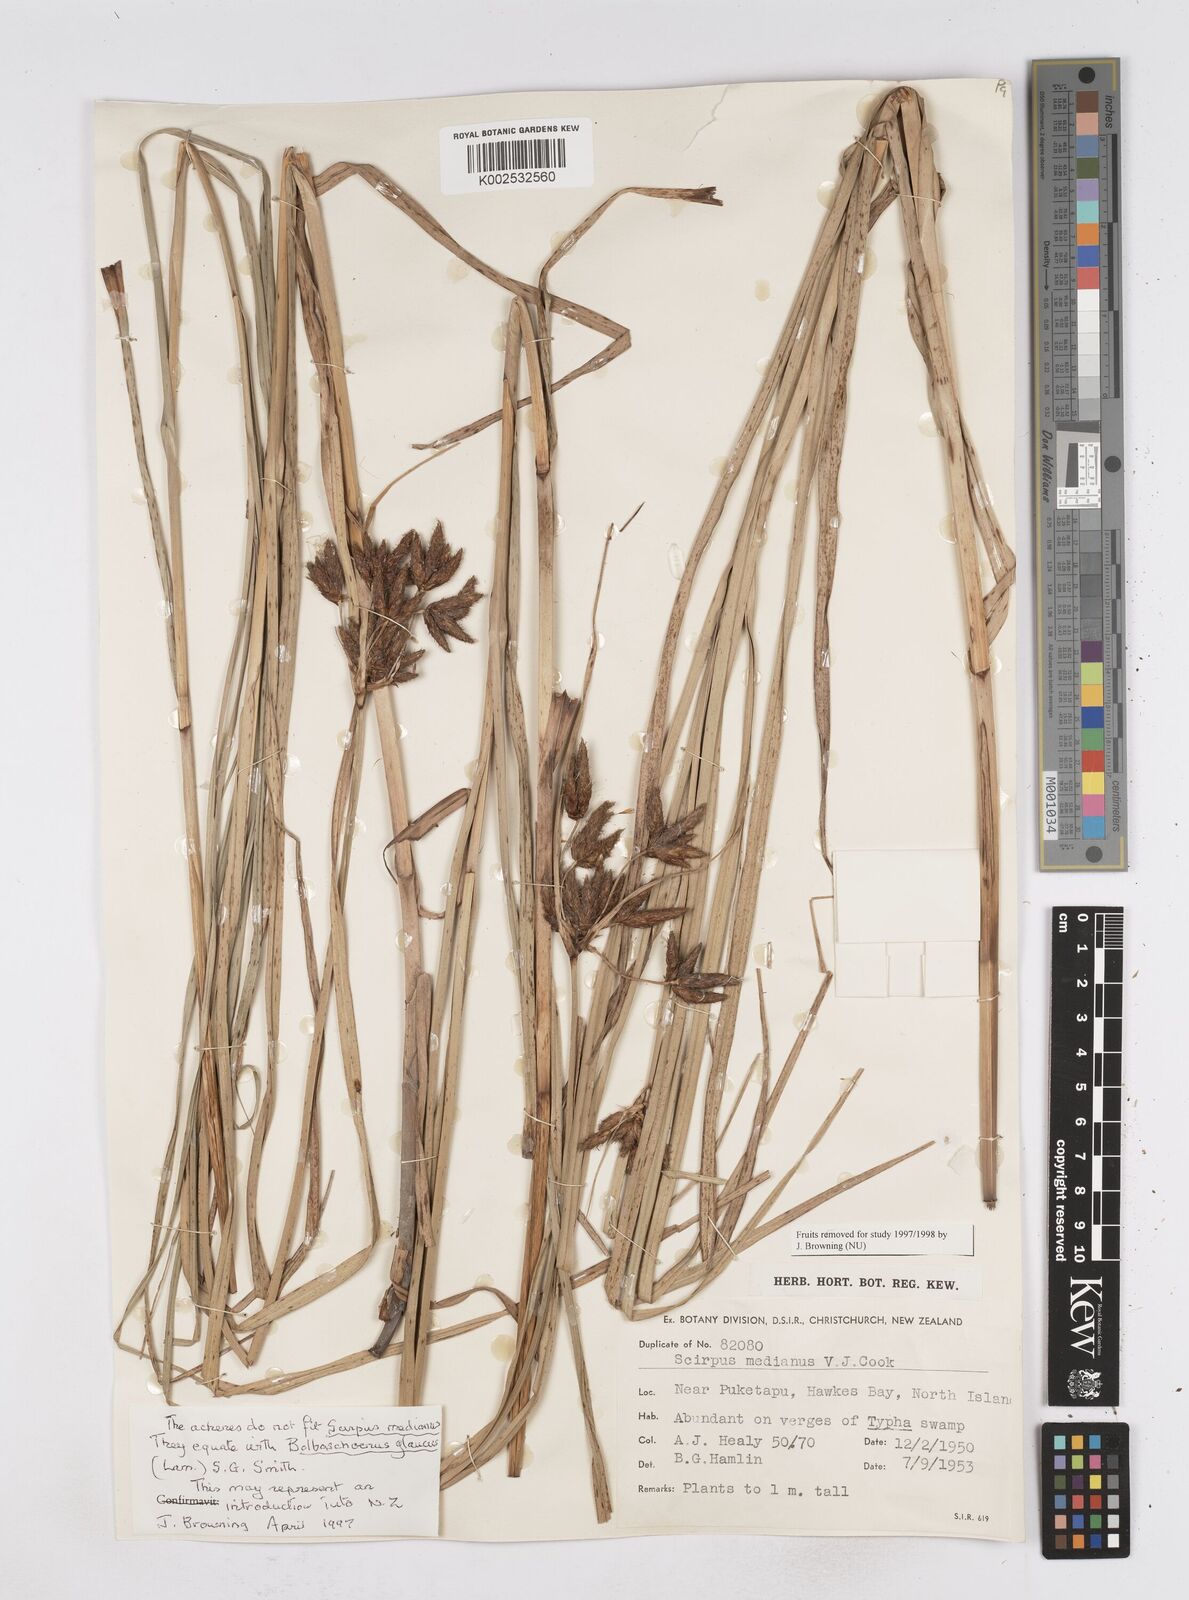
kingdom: Plantae
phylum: Tracheophyta
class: Liliopsida
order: Poales
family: Cyperaceae
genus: Bolboschoenus
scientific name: Bolboschoenus medianus
